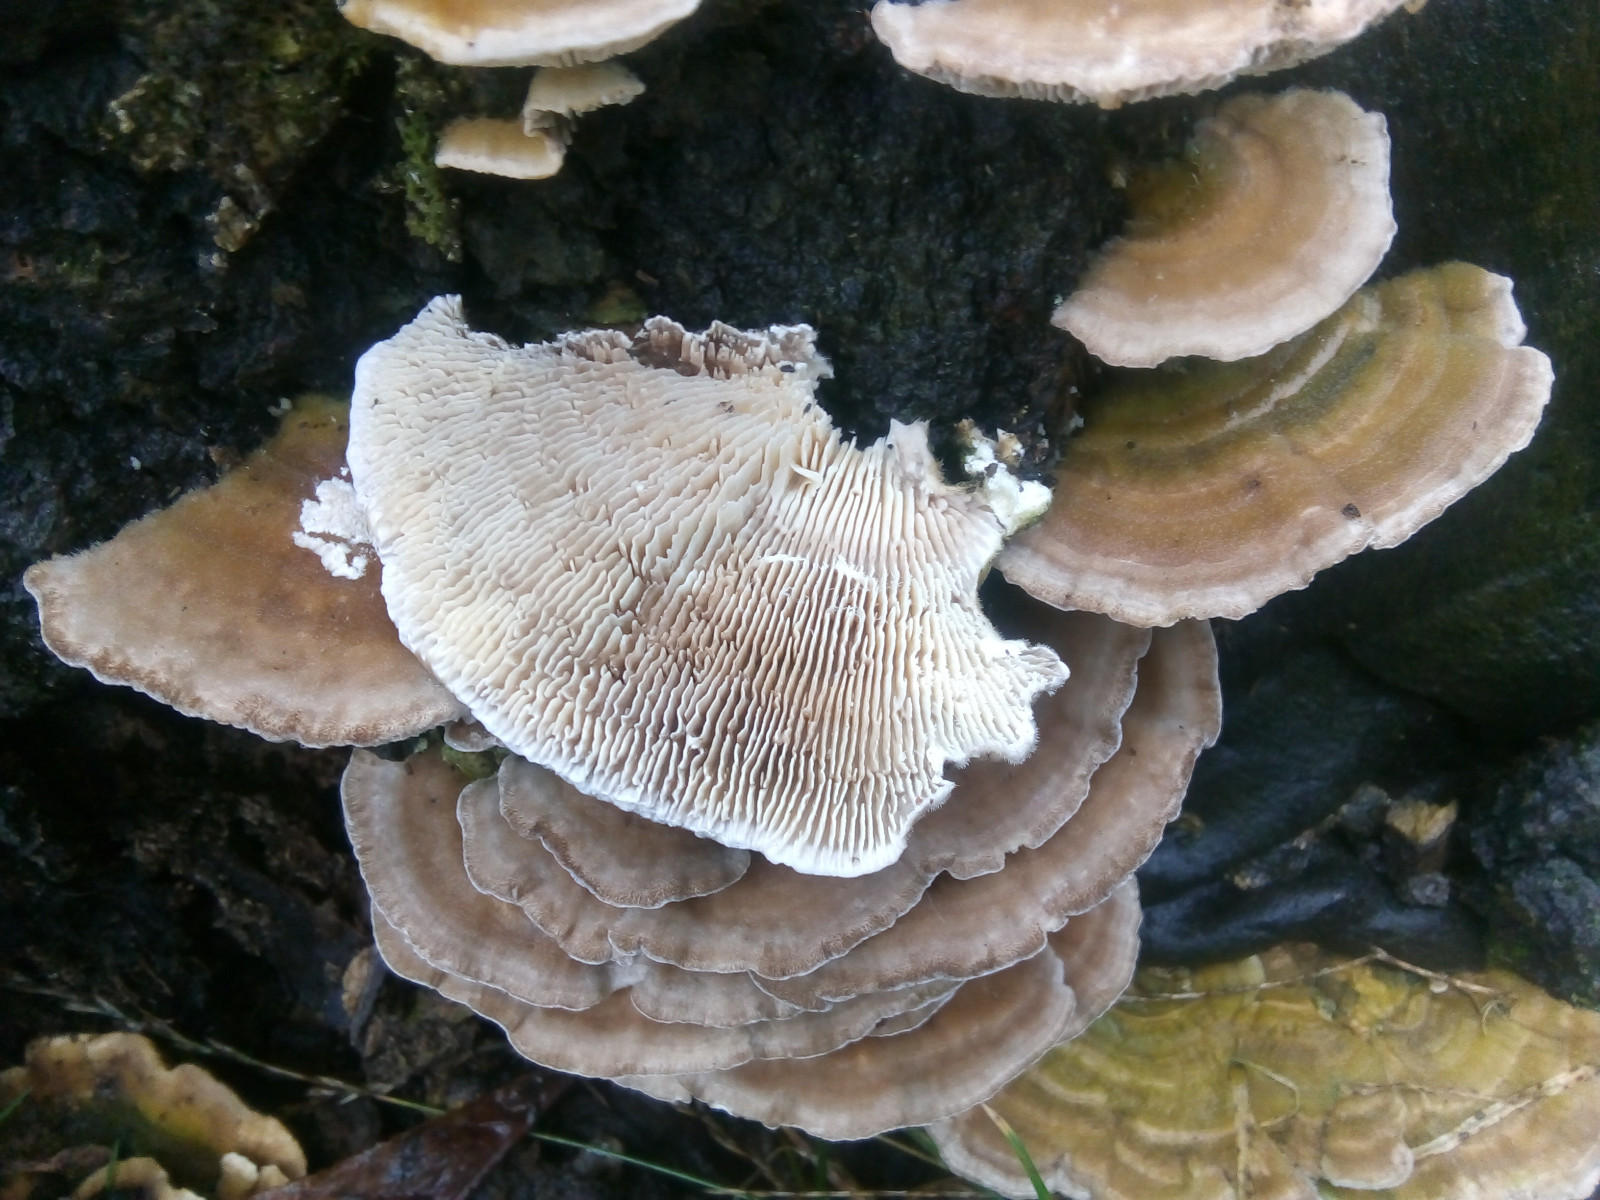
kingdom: Fungi
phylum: Basidiomycota
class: Agaricomycetes
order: Polyporales
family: Polyporaceae
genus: Lenzites
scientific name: Lenzites betulinus
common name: birke-læderporesvamp
